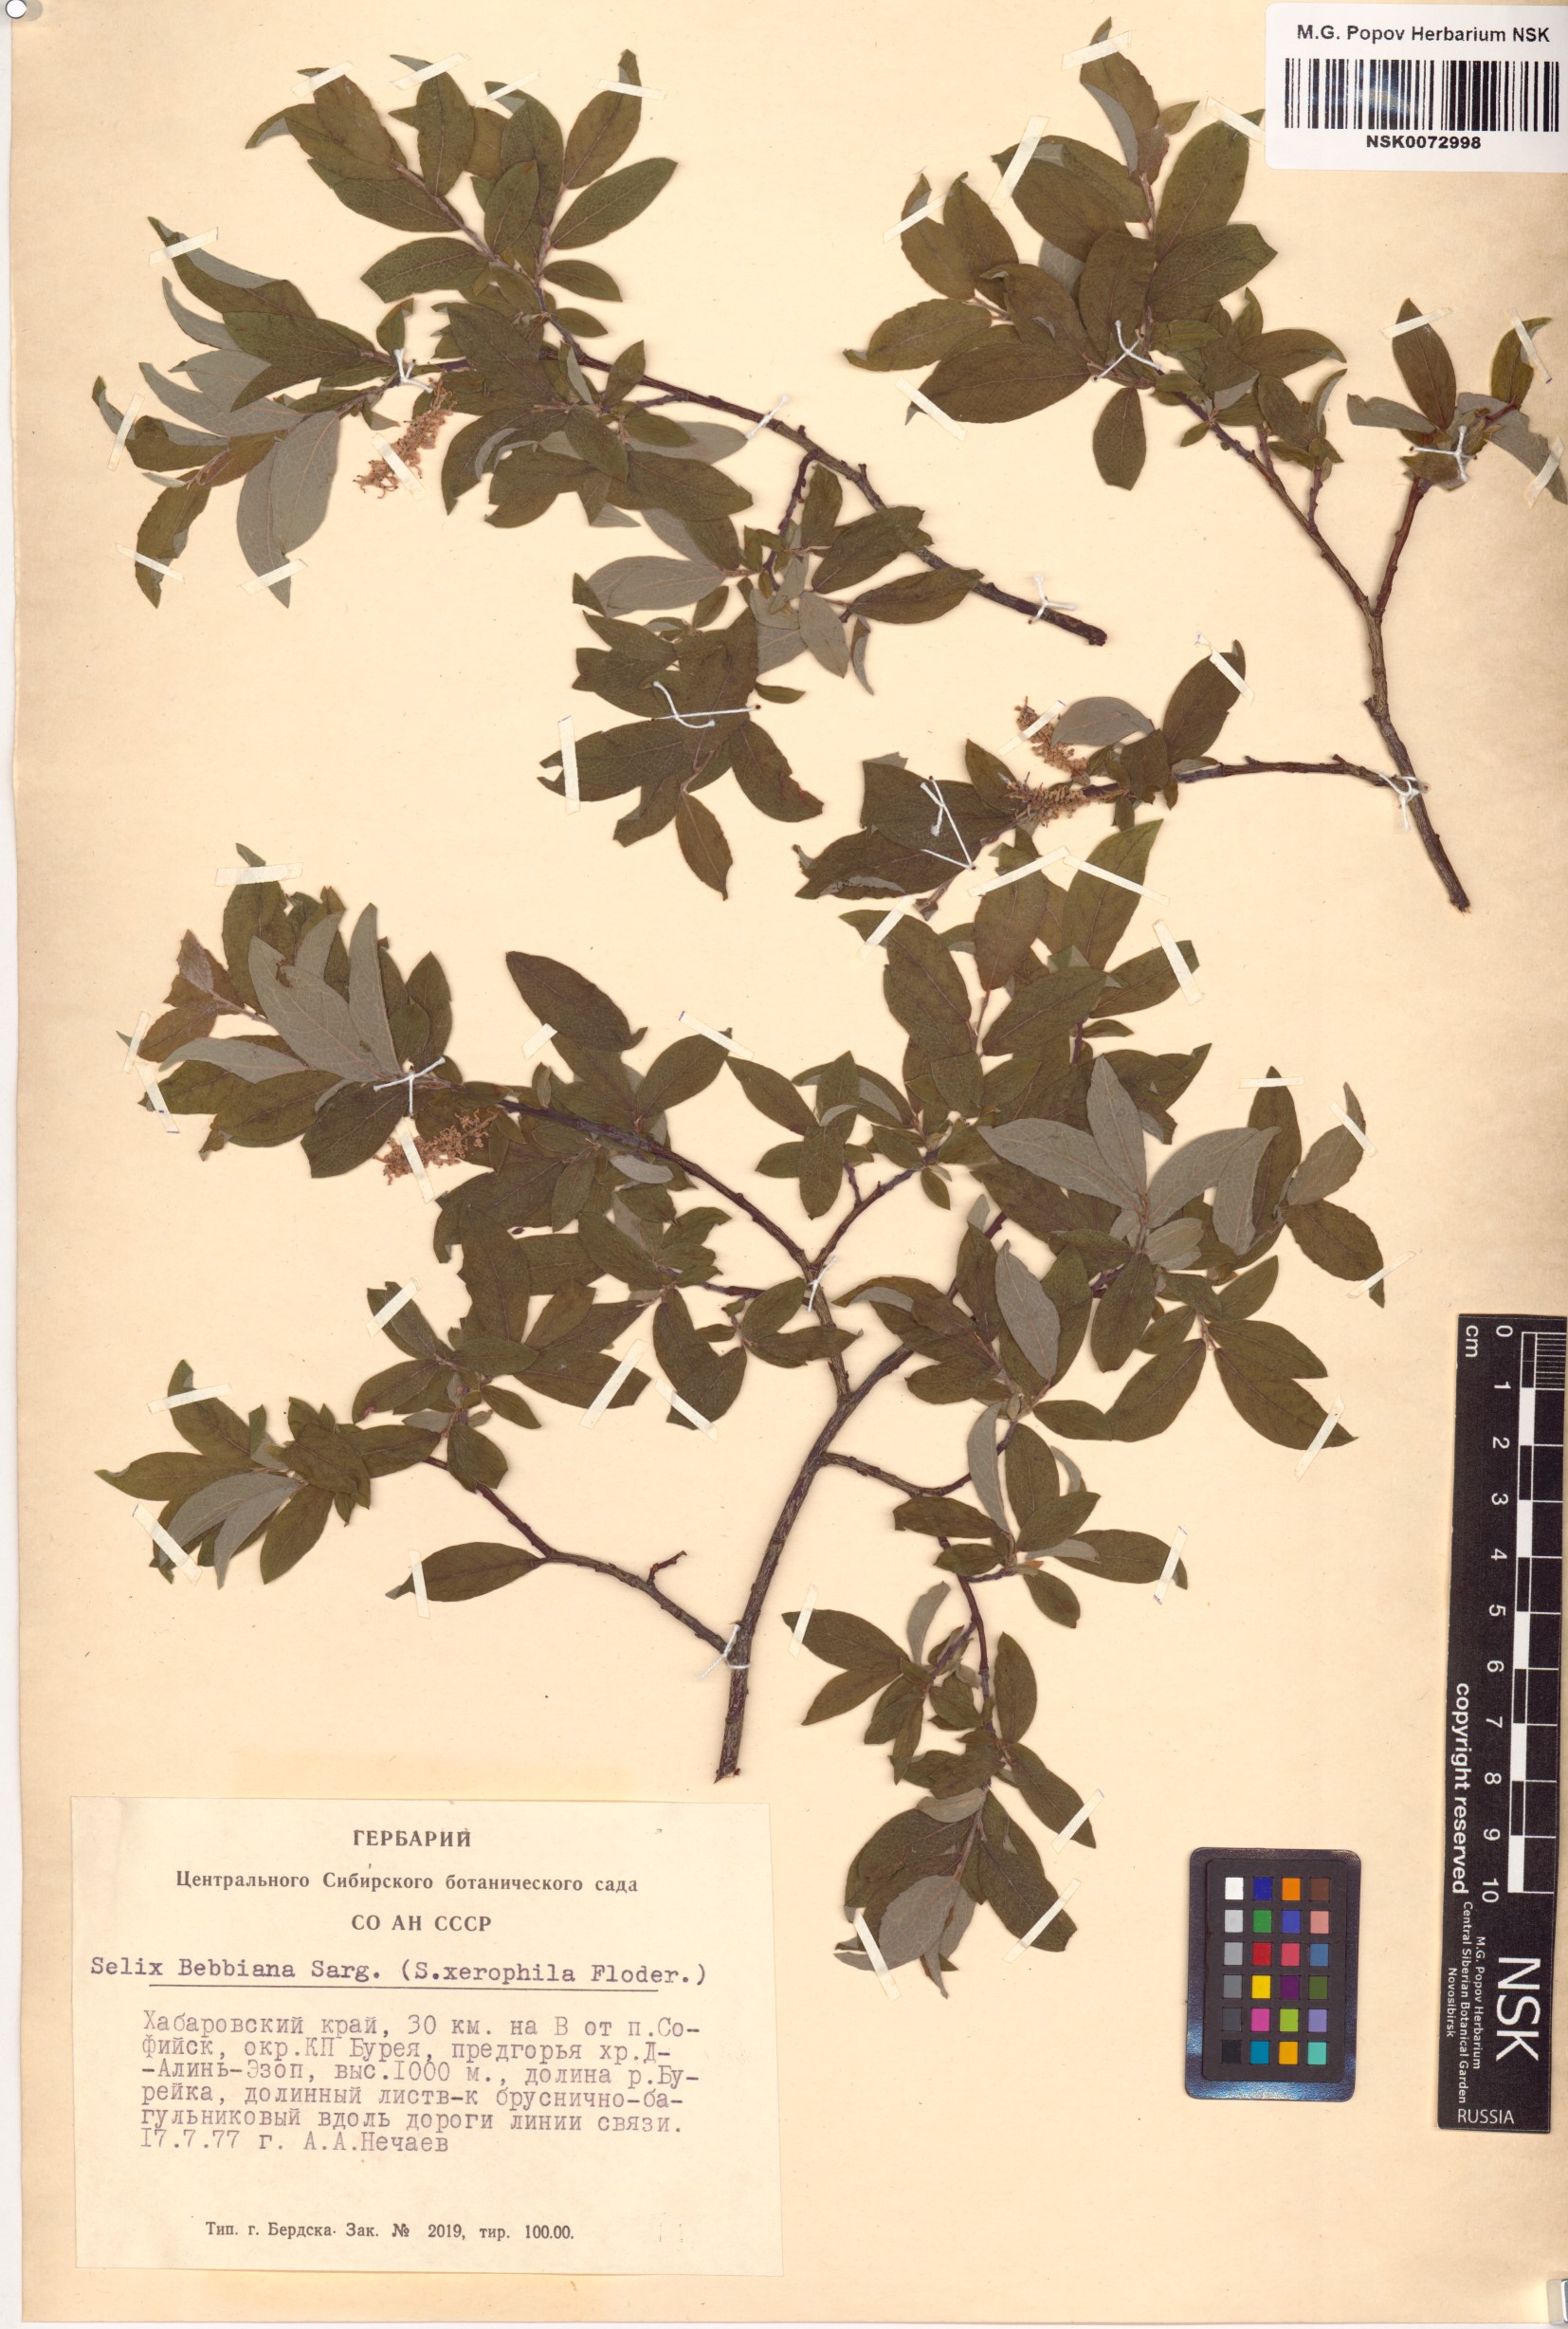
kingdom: Plantae
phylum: Tracheophyta
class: Magnoliopsida
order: Malpighiales
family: Salicaceae
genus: Salix
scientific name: Salix bebbiana
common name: Bebb's willow
